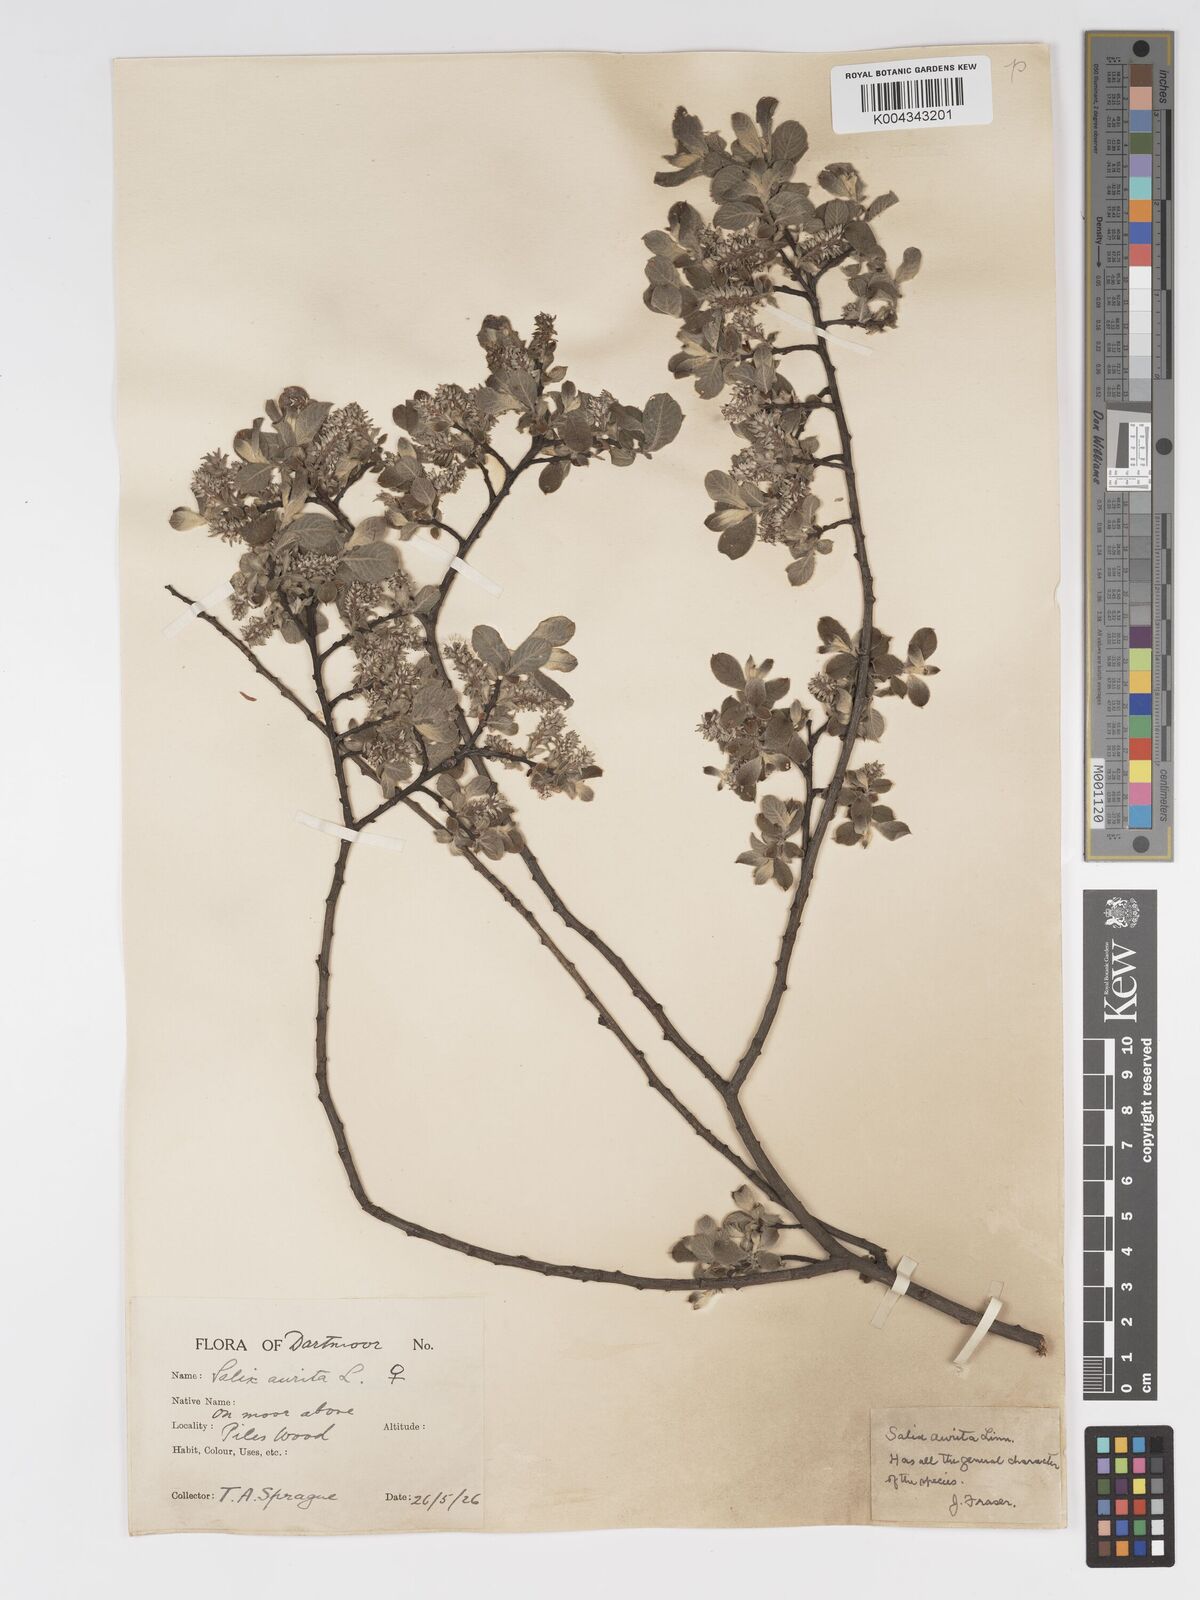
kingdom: Plantae
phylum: Tracheophyta
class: Magnoliopsida
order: Malpighiales
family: Salicaceae
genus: Salix
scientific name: Salix aurita
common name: Eared willow
